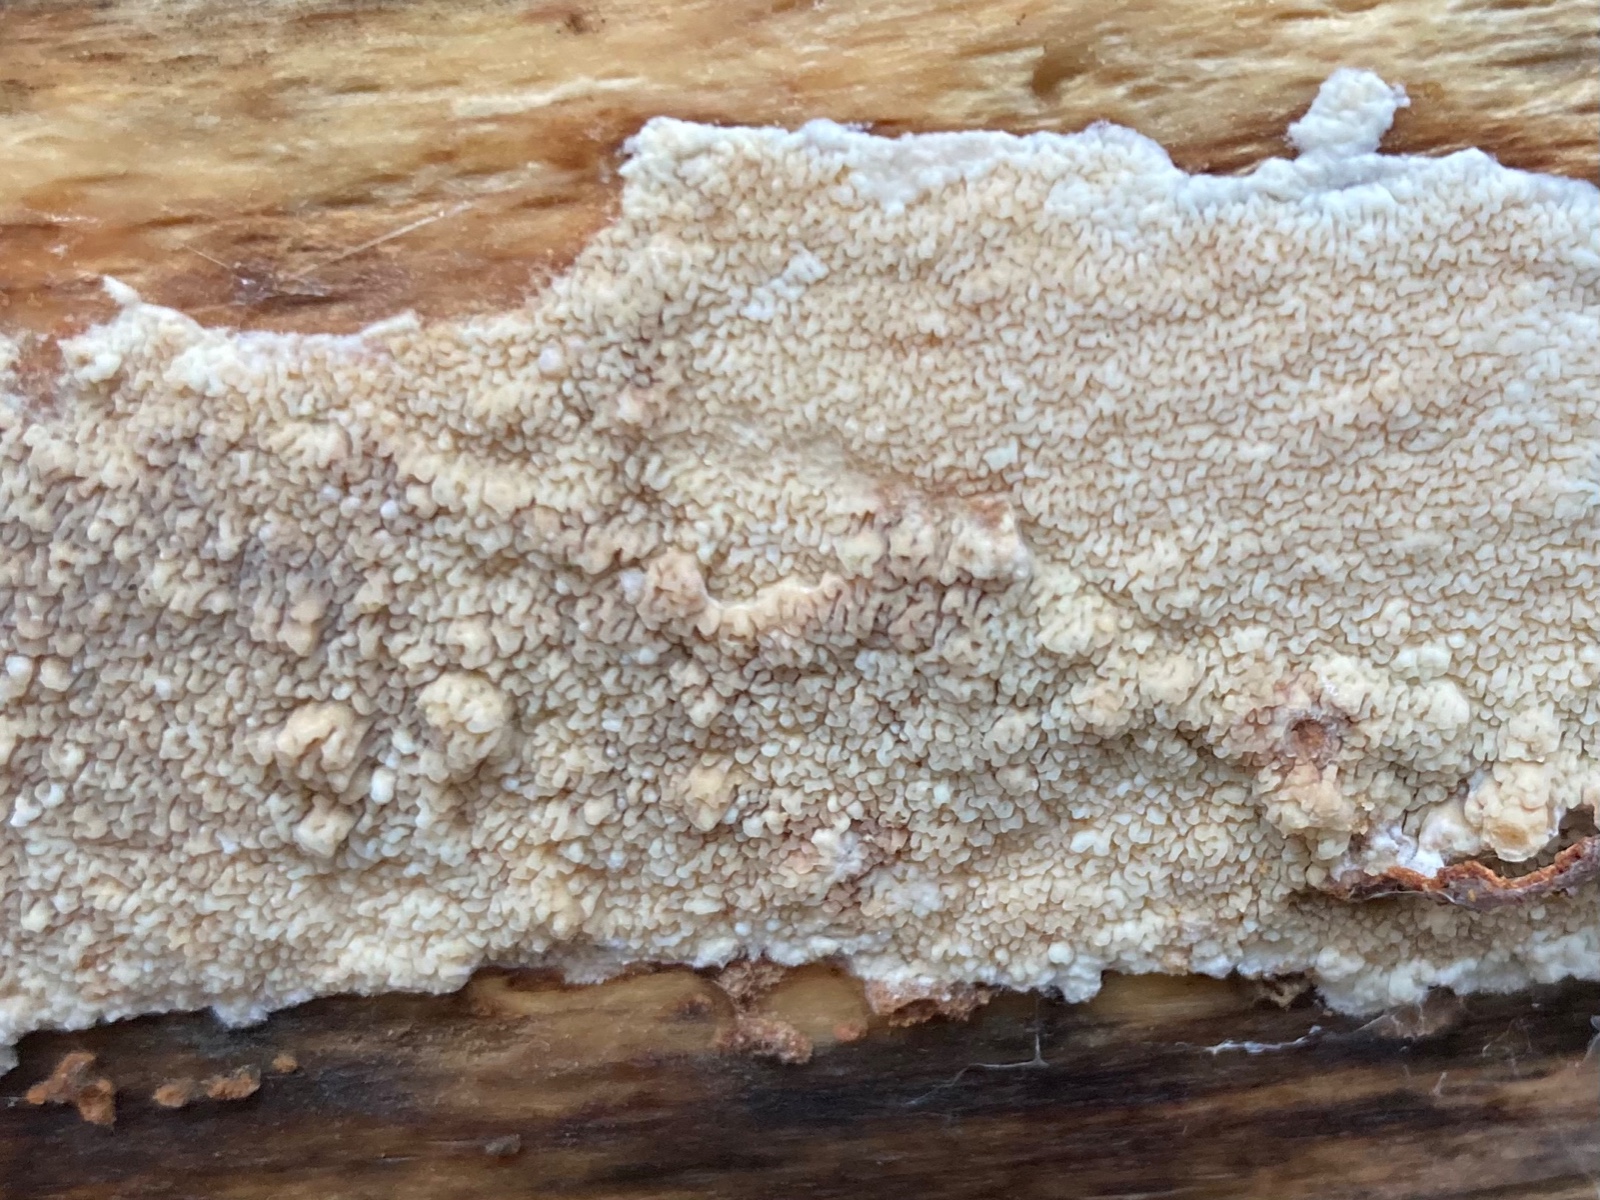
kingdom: Fungi
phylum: Basidiomycota
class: Agaricomycetes
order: Corticiales
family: Corticiaceae
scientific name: Corticiaceae
